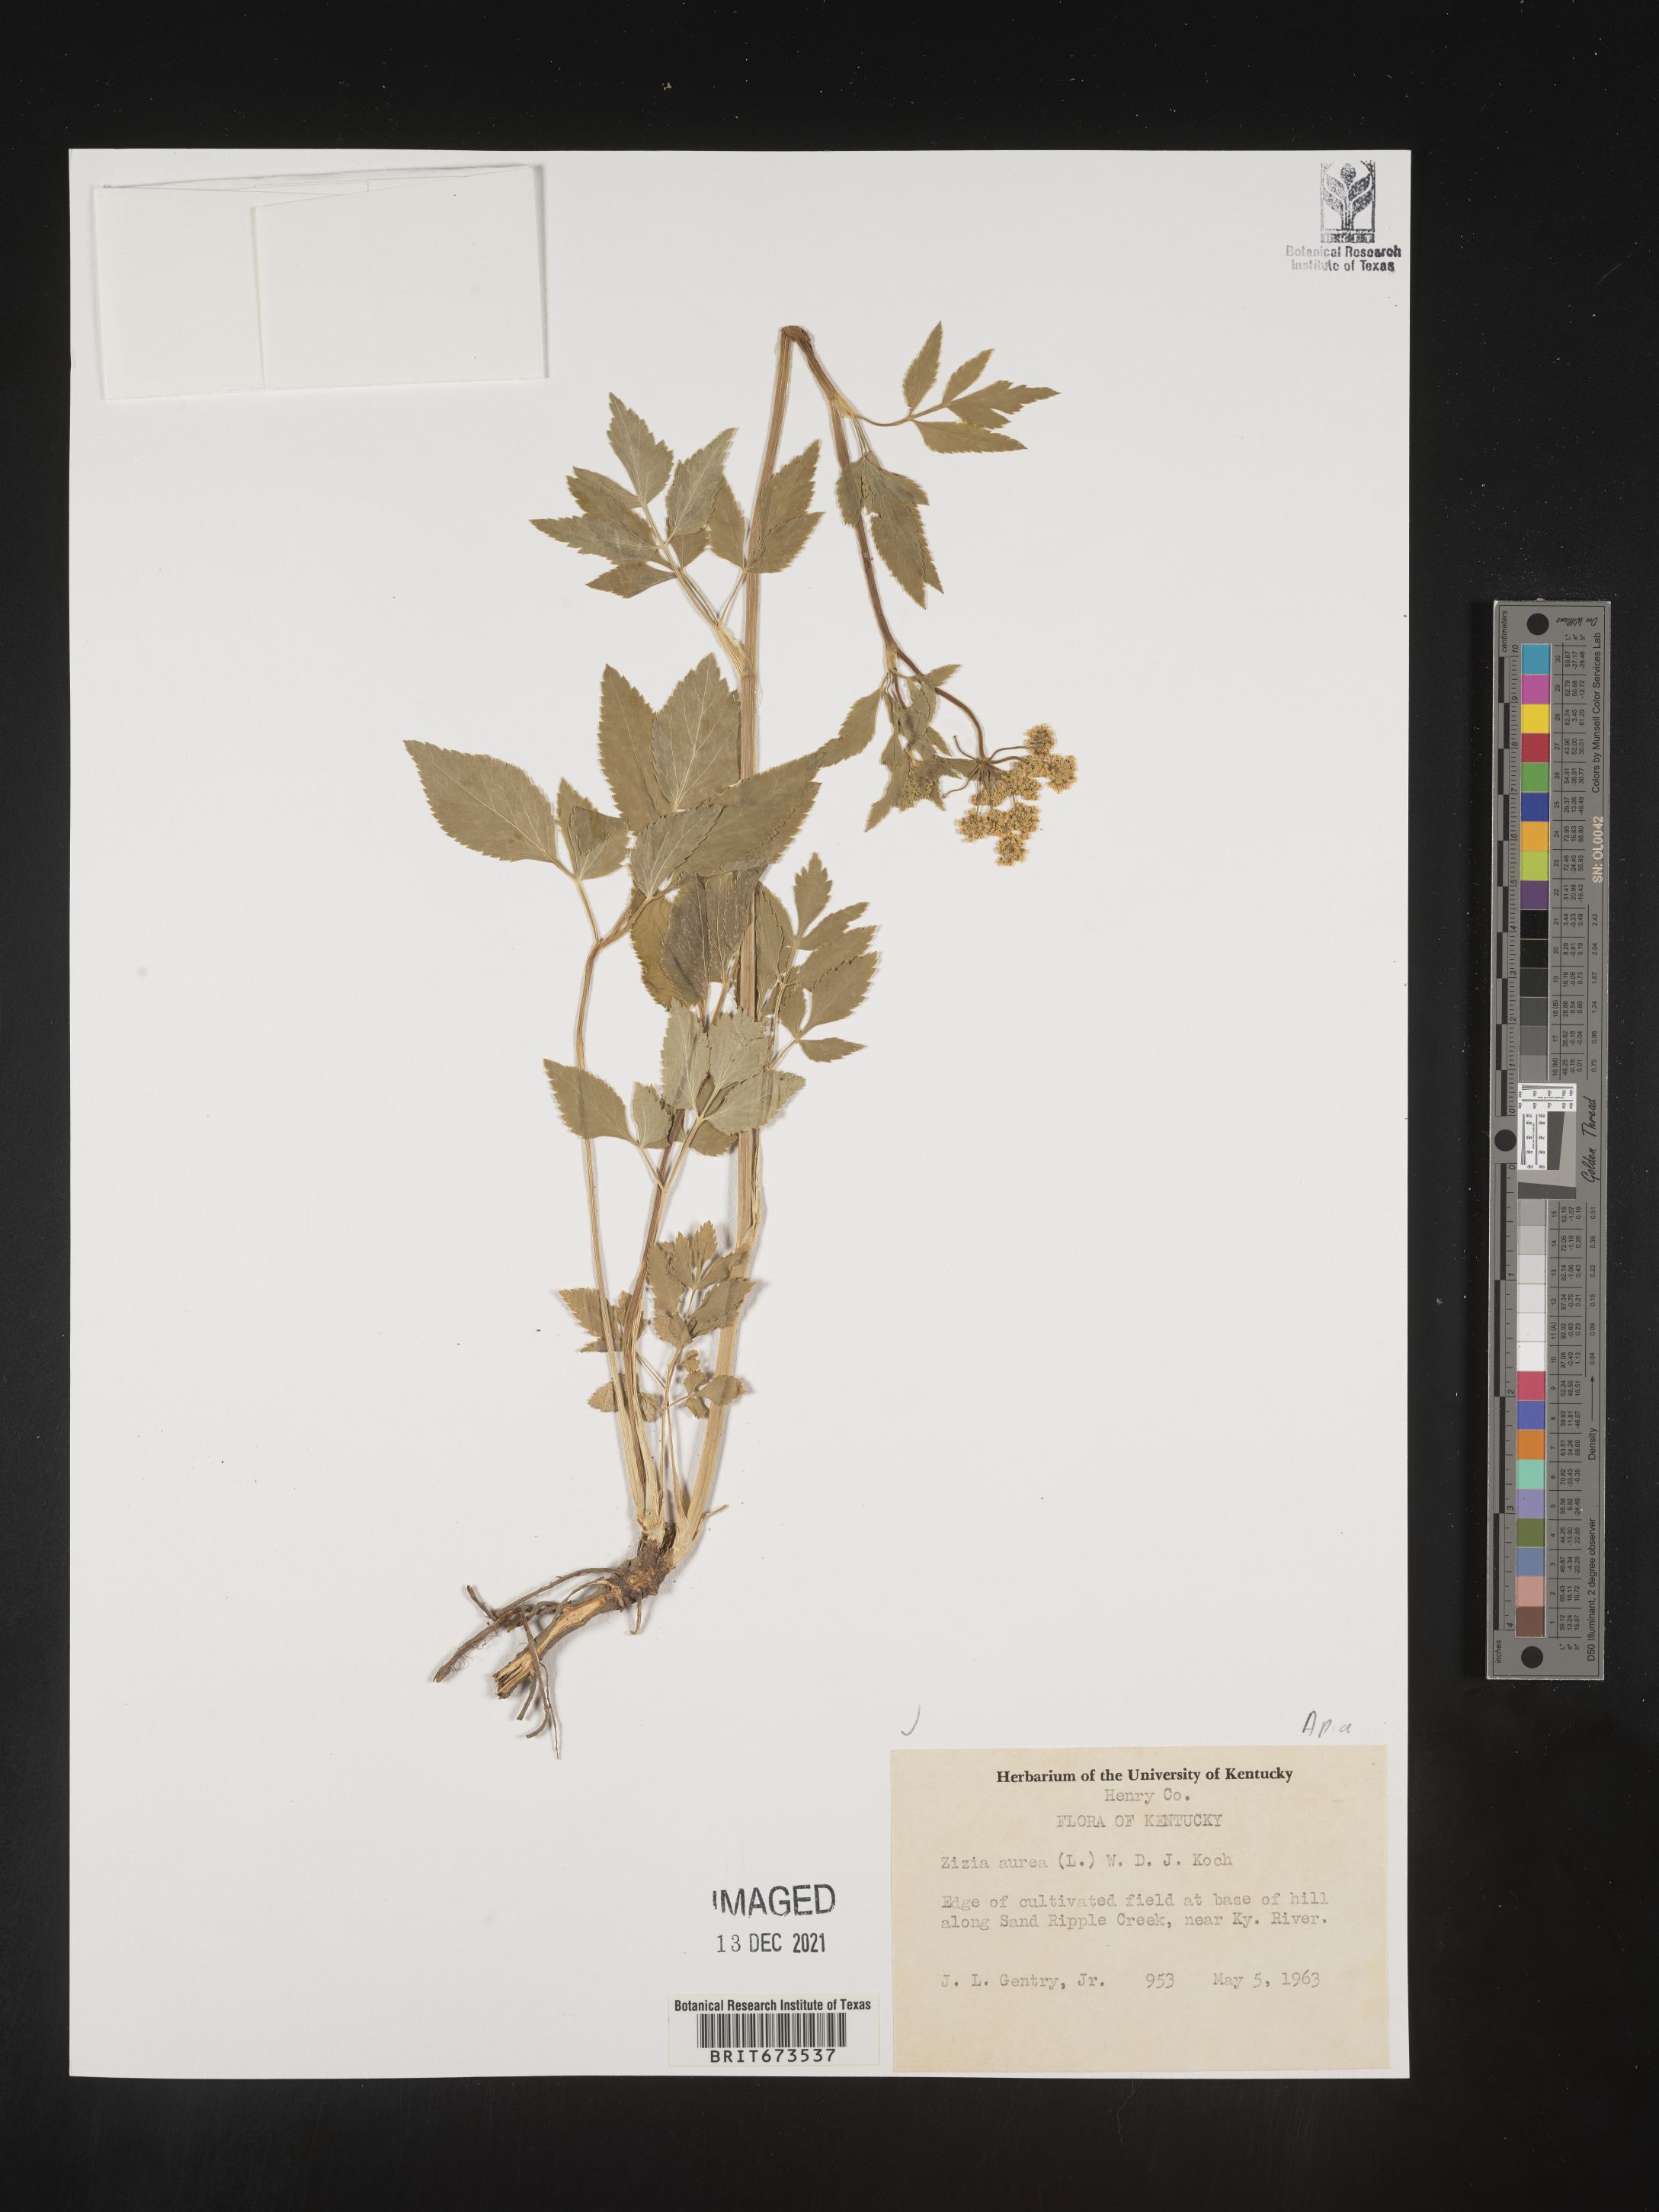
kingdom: Plantae
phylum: Tracheophyta
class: Magnoliopsida
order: Apiales
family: Apiaceae
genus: Zizia
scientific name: Zizia aurea
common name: Golden alexanders
